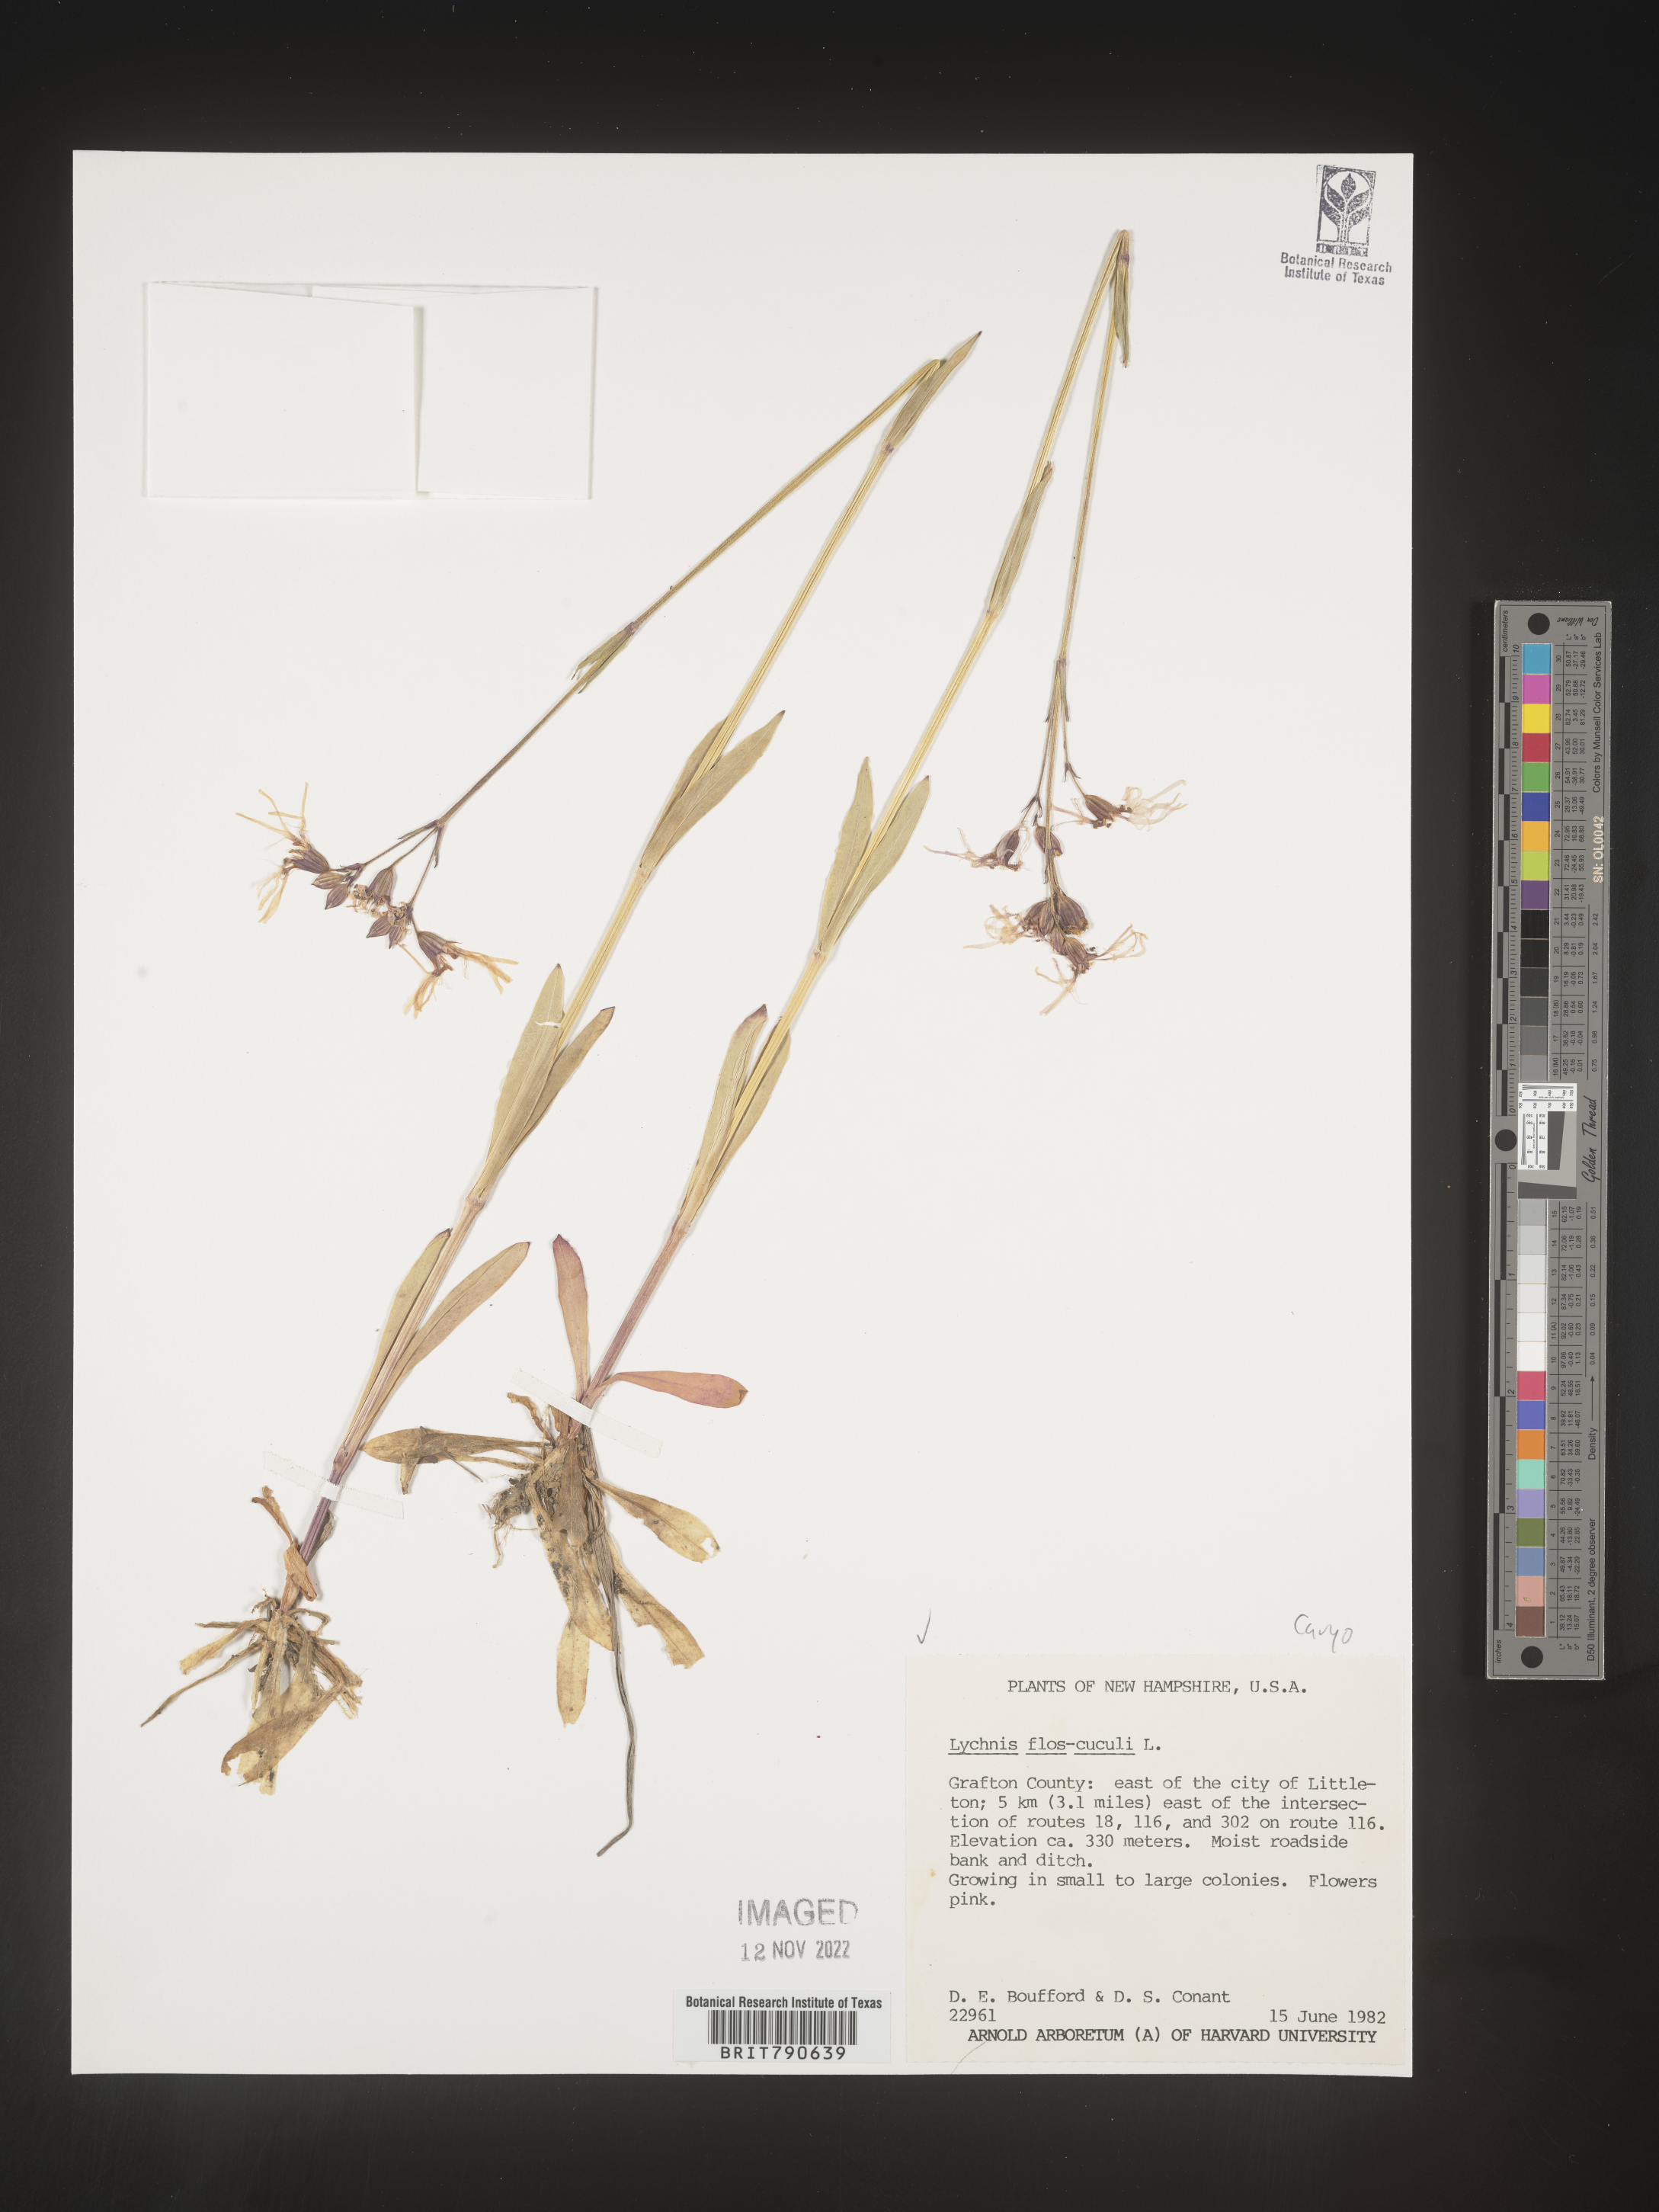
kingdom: Plantae
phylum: Tracheophyta
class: Magnoliopsida
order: Caryophyllales
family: Caryophyllaceae
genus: Silene
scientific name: Silene
